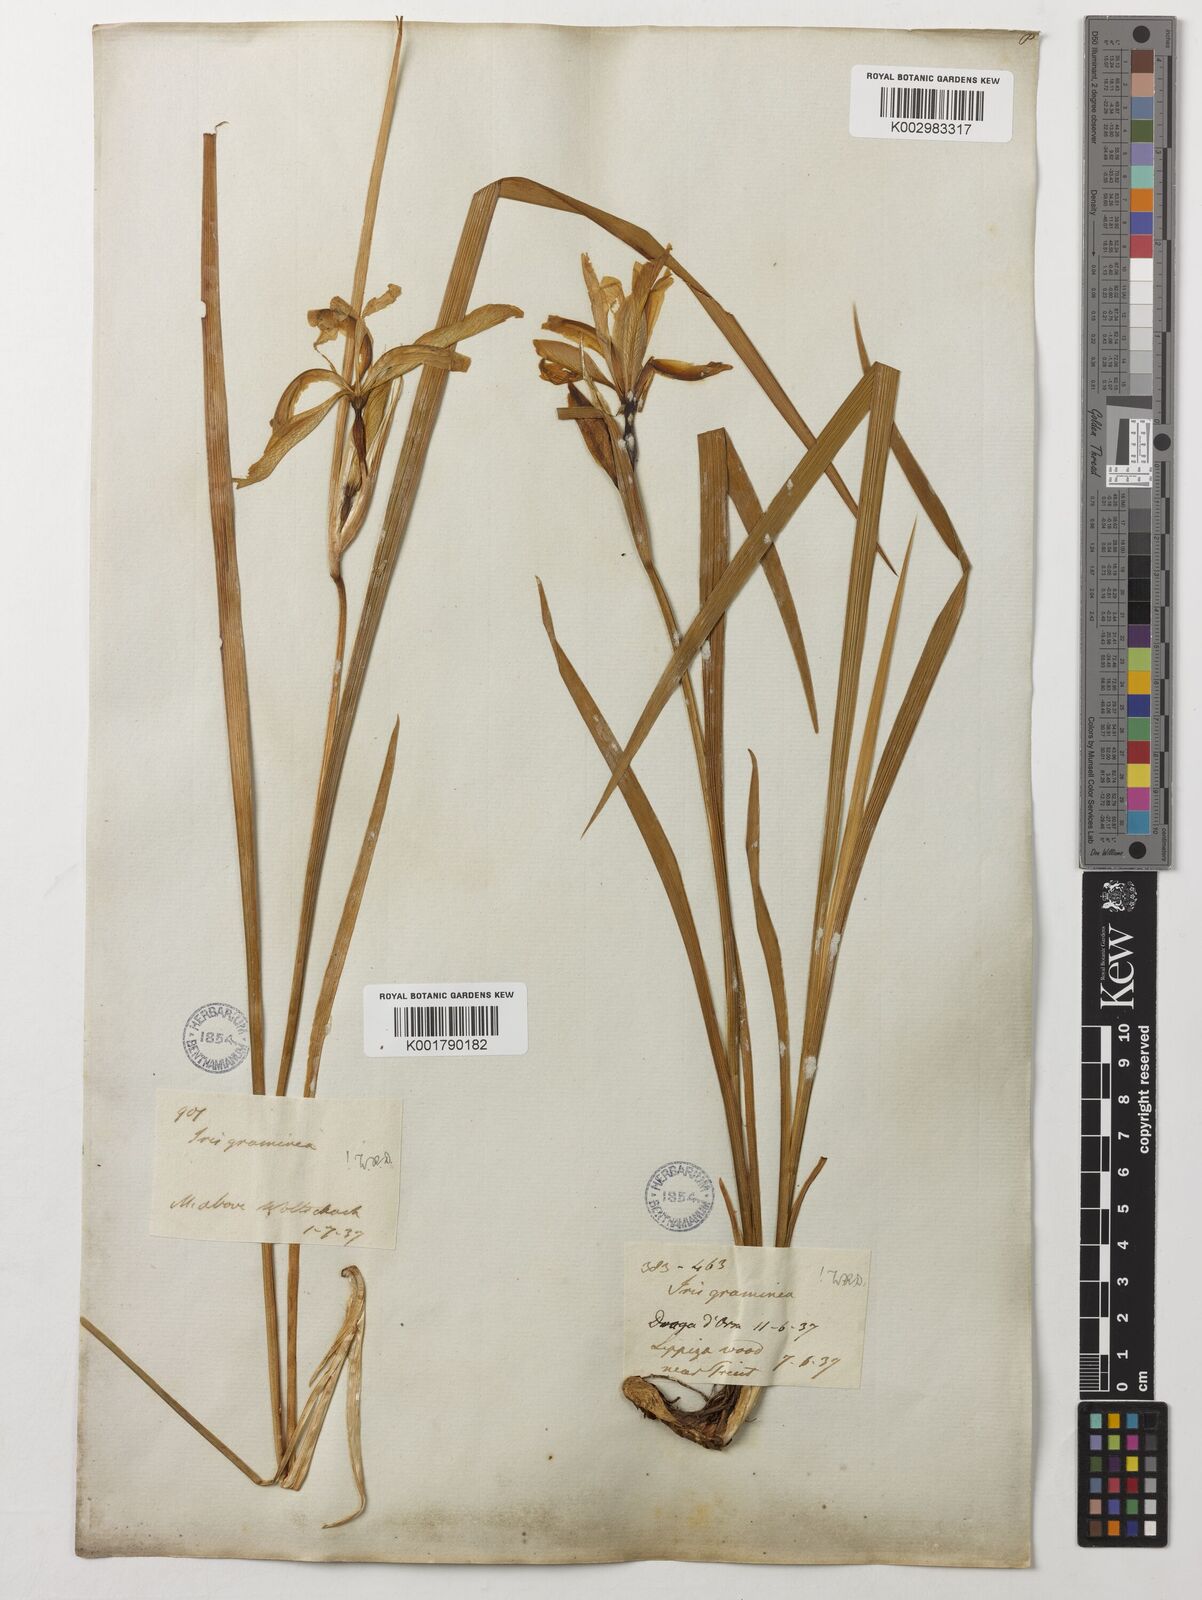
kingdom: Plantae
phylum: Tracheophyta
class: Liliopsida
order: Asparagales
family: Iridaceae
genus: Iris
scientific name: Iris graminea
